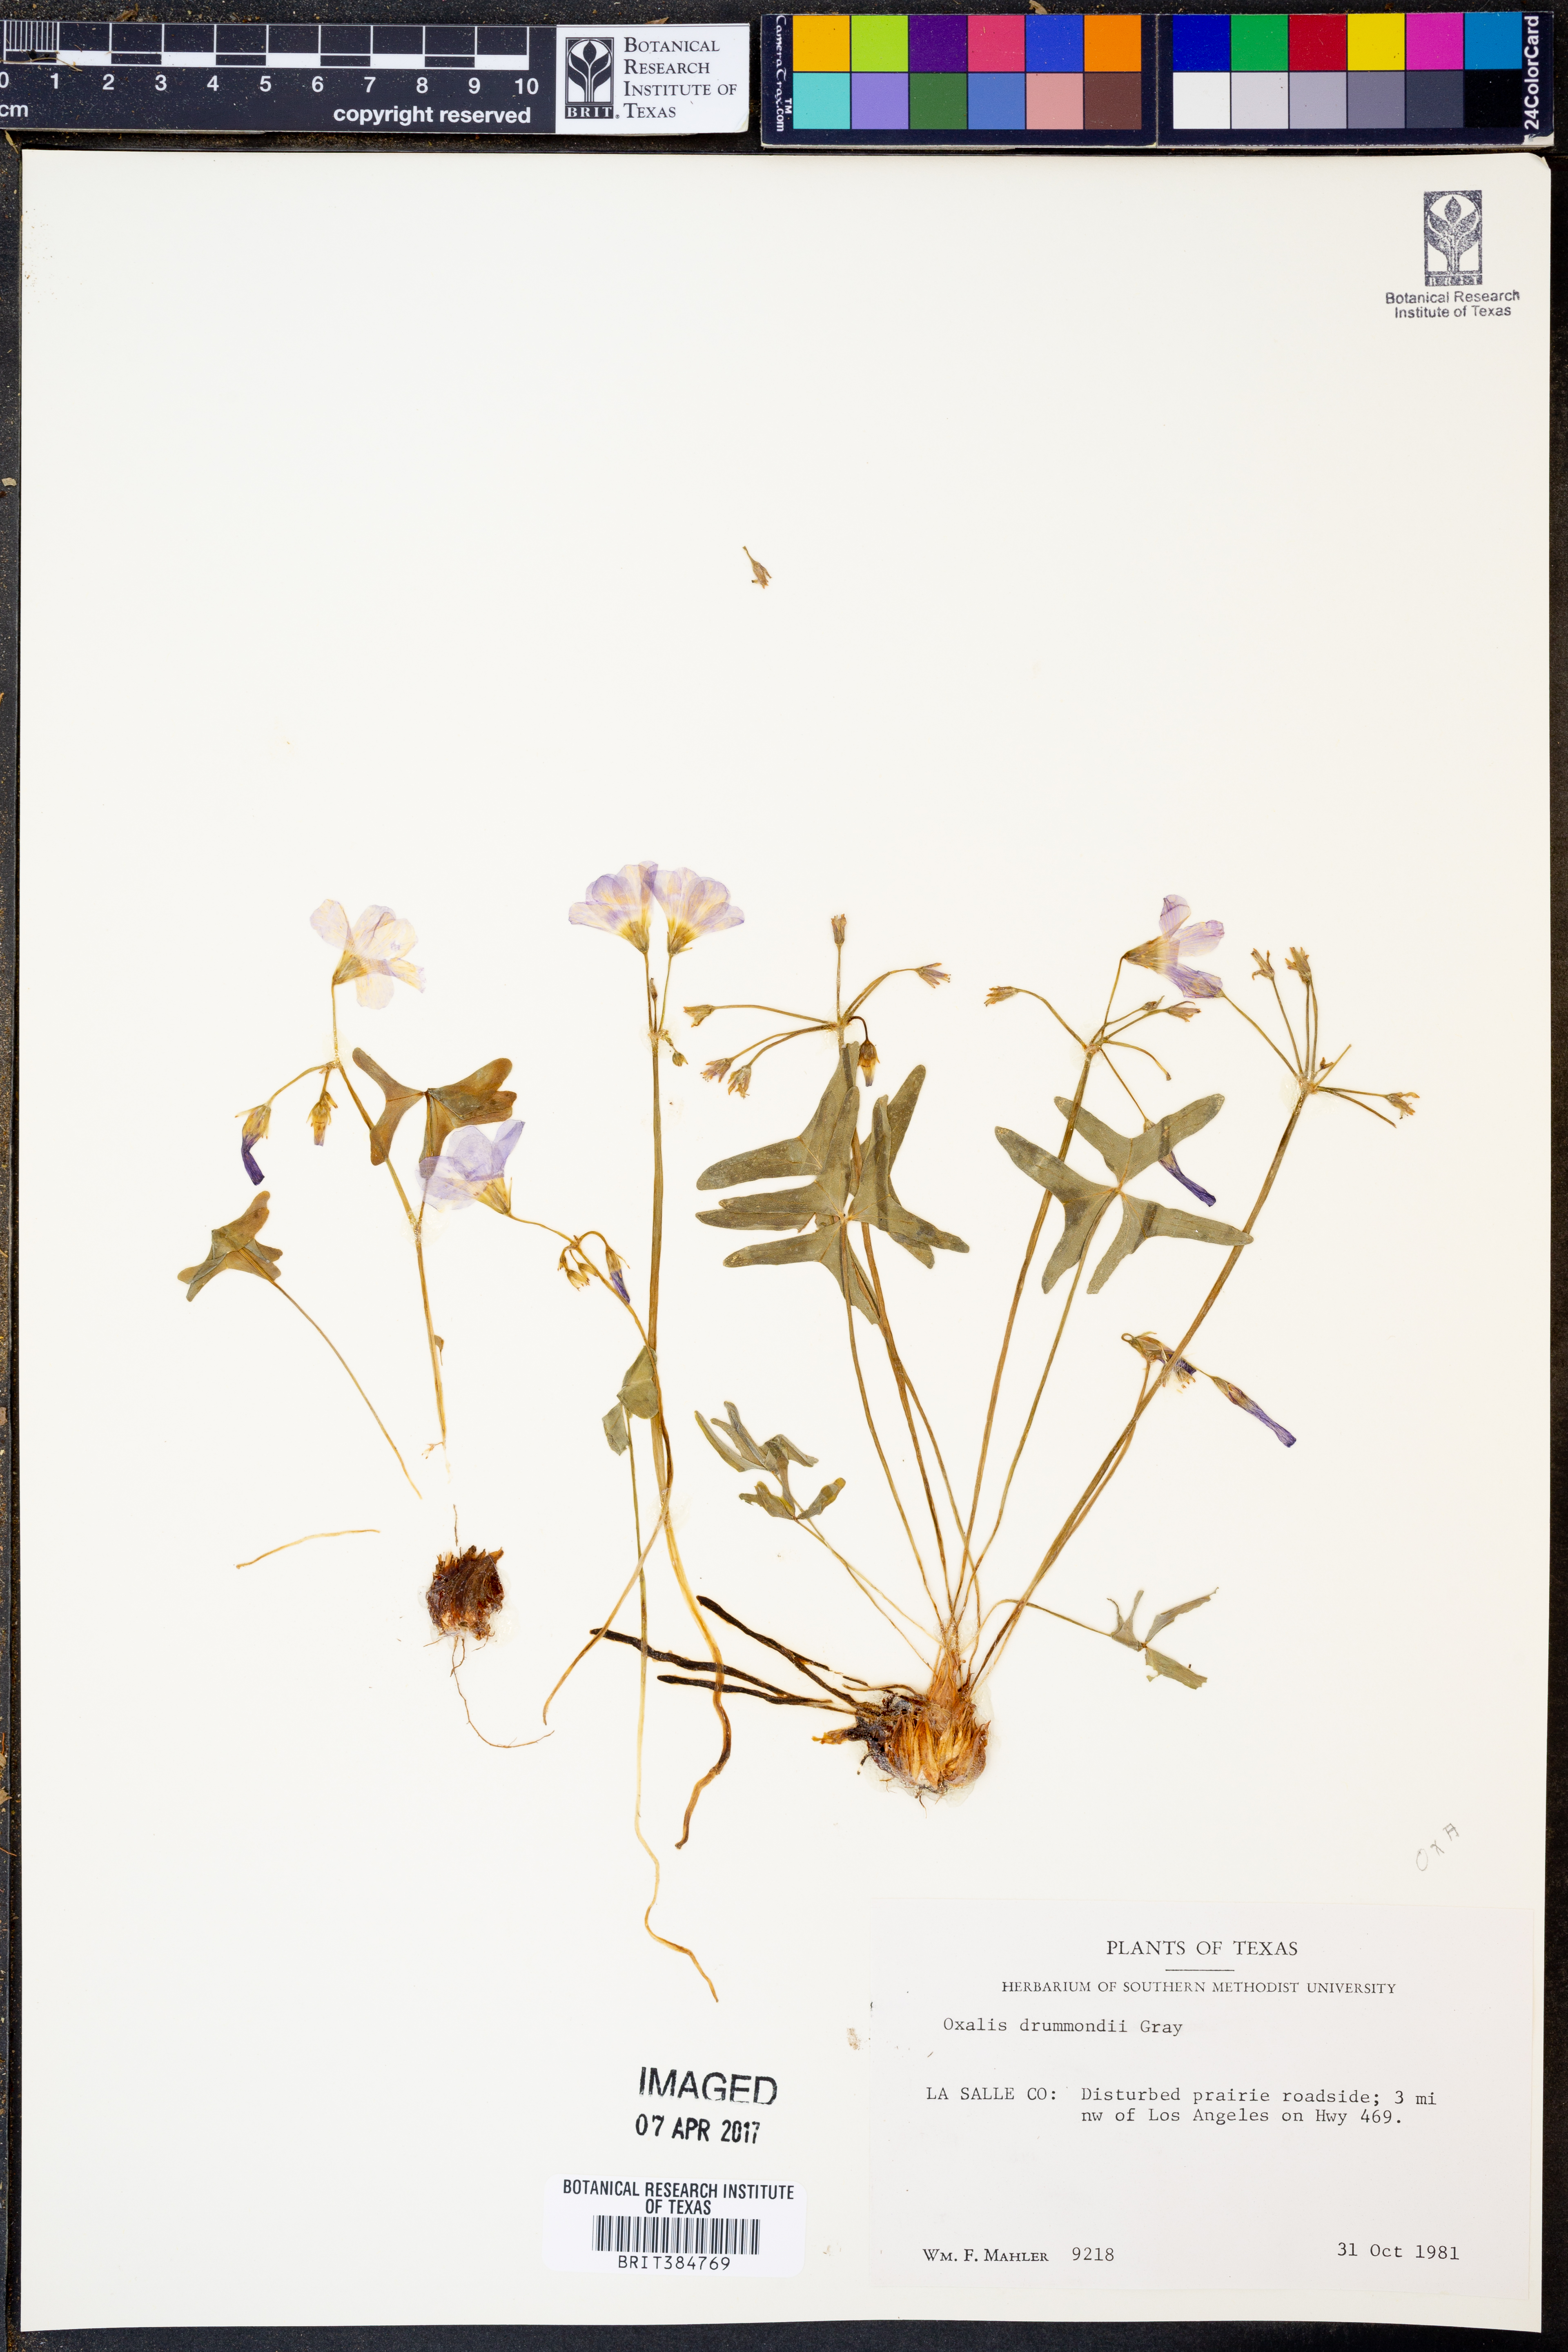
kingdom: Plantae
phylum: Tracheophyta
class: Magnoliopsida
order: Oxalidales
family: Oxalidaceae
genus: Oxalis
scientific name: Oxalis drummondii
